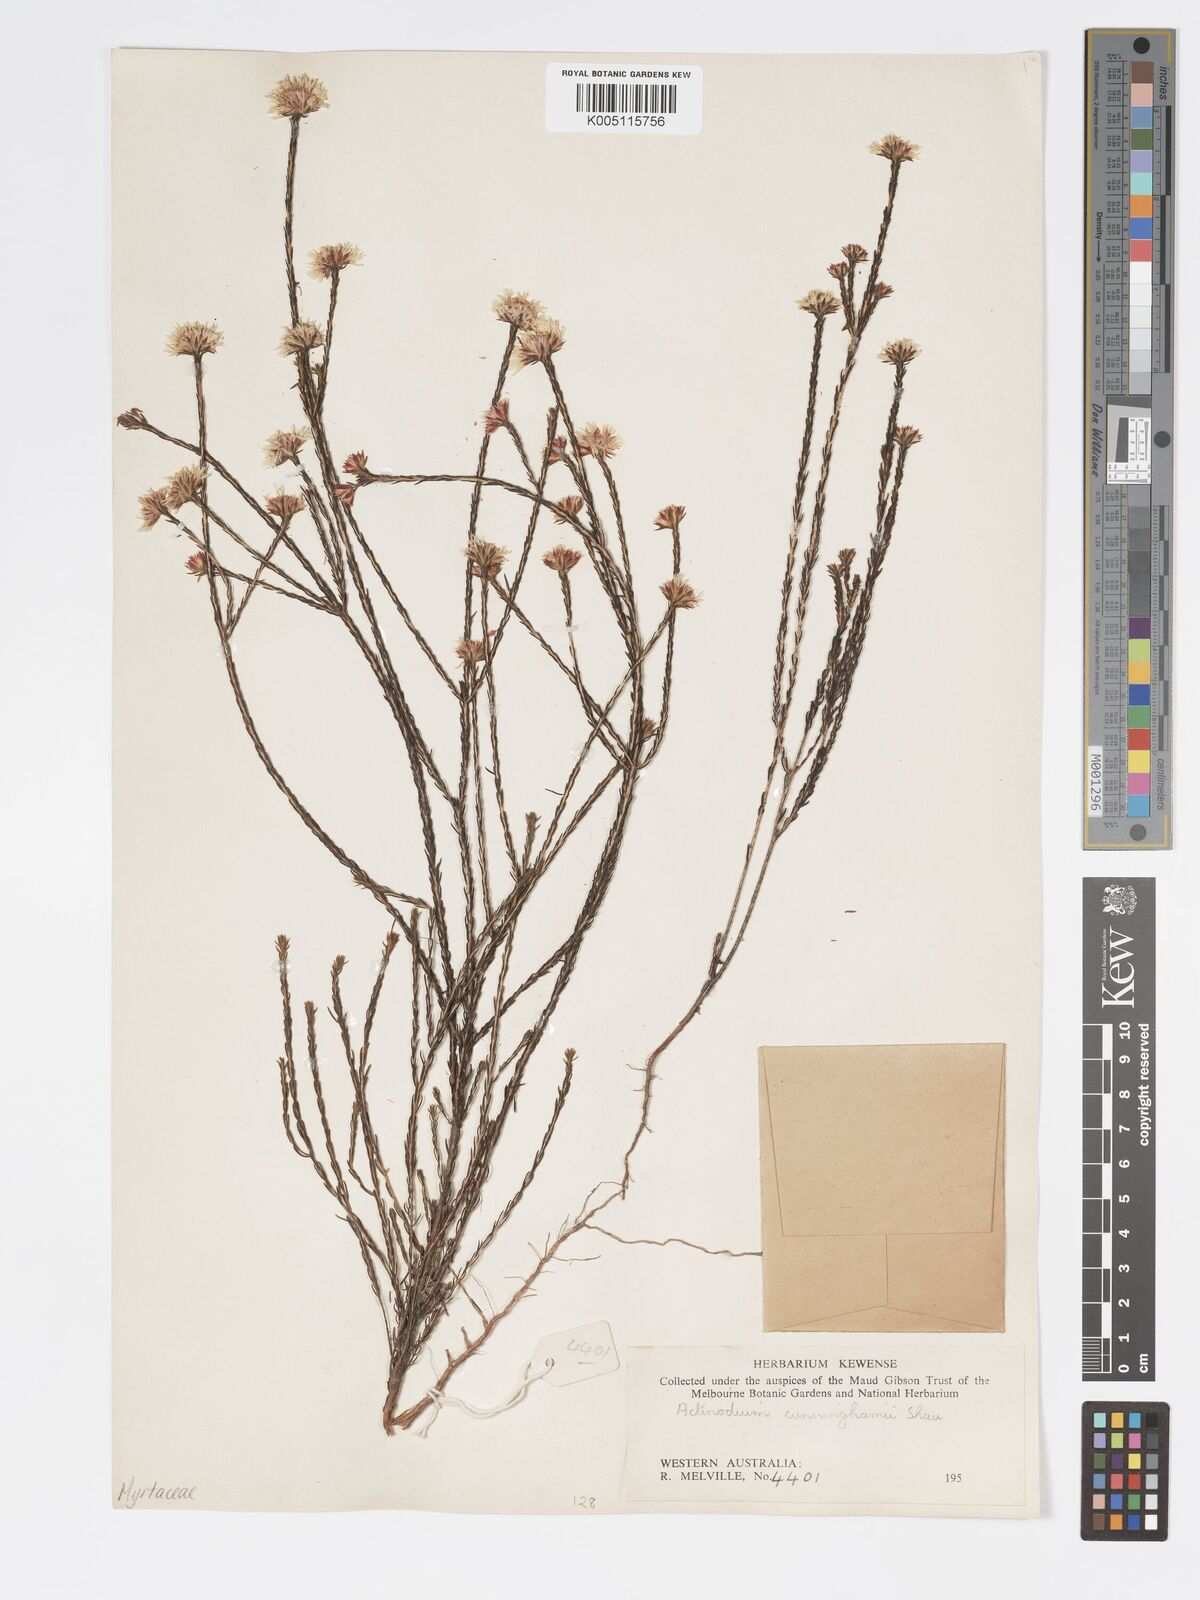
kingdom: Plantae
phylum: Tracheophyta
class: Magnoliopsida
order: Myrtales
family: Myrtaceae
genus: Actinodium
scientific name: Actinodium cunninghamii
